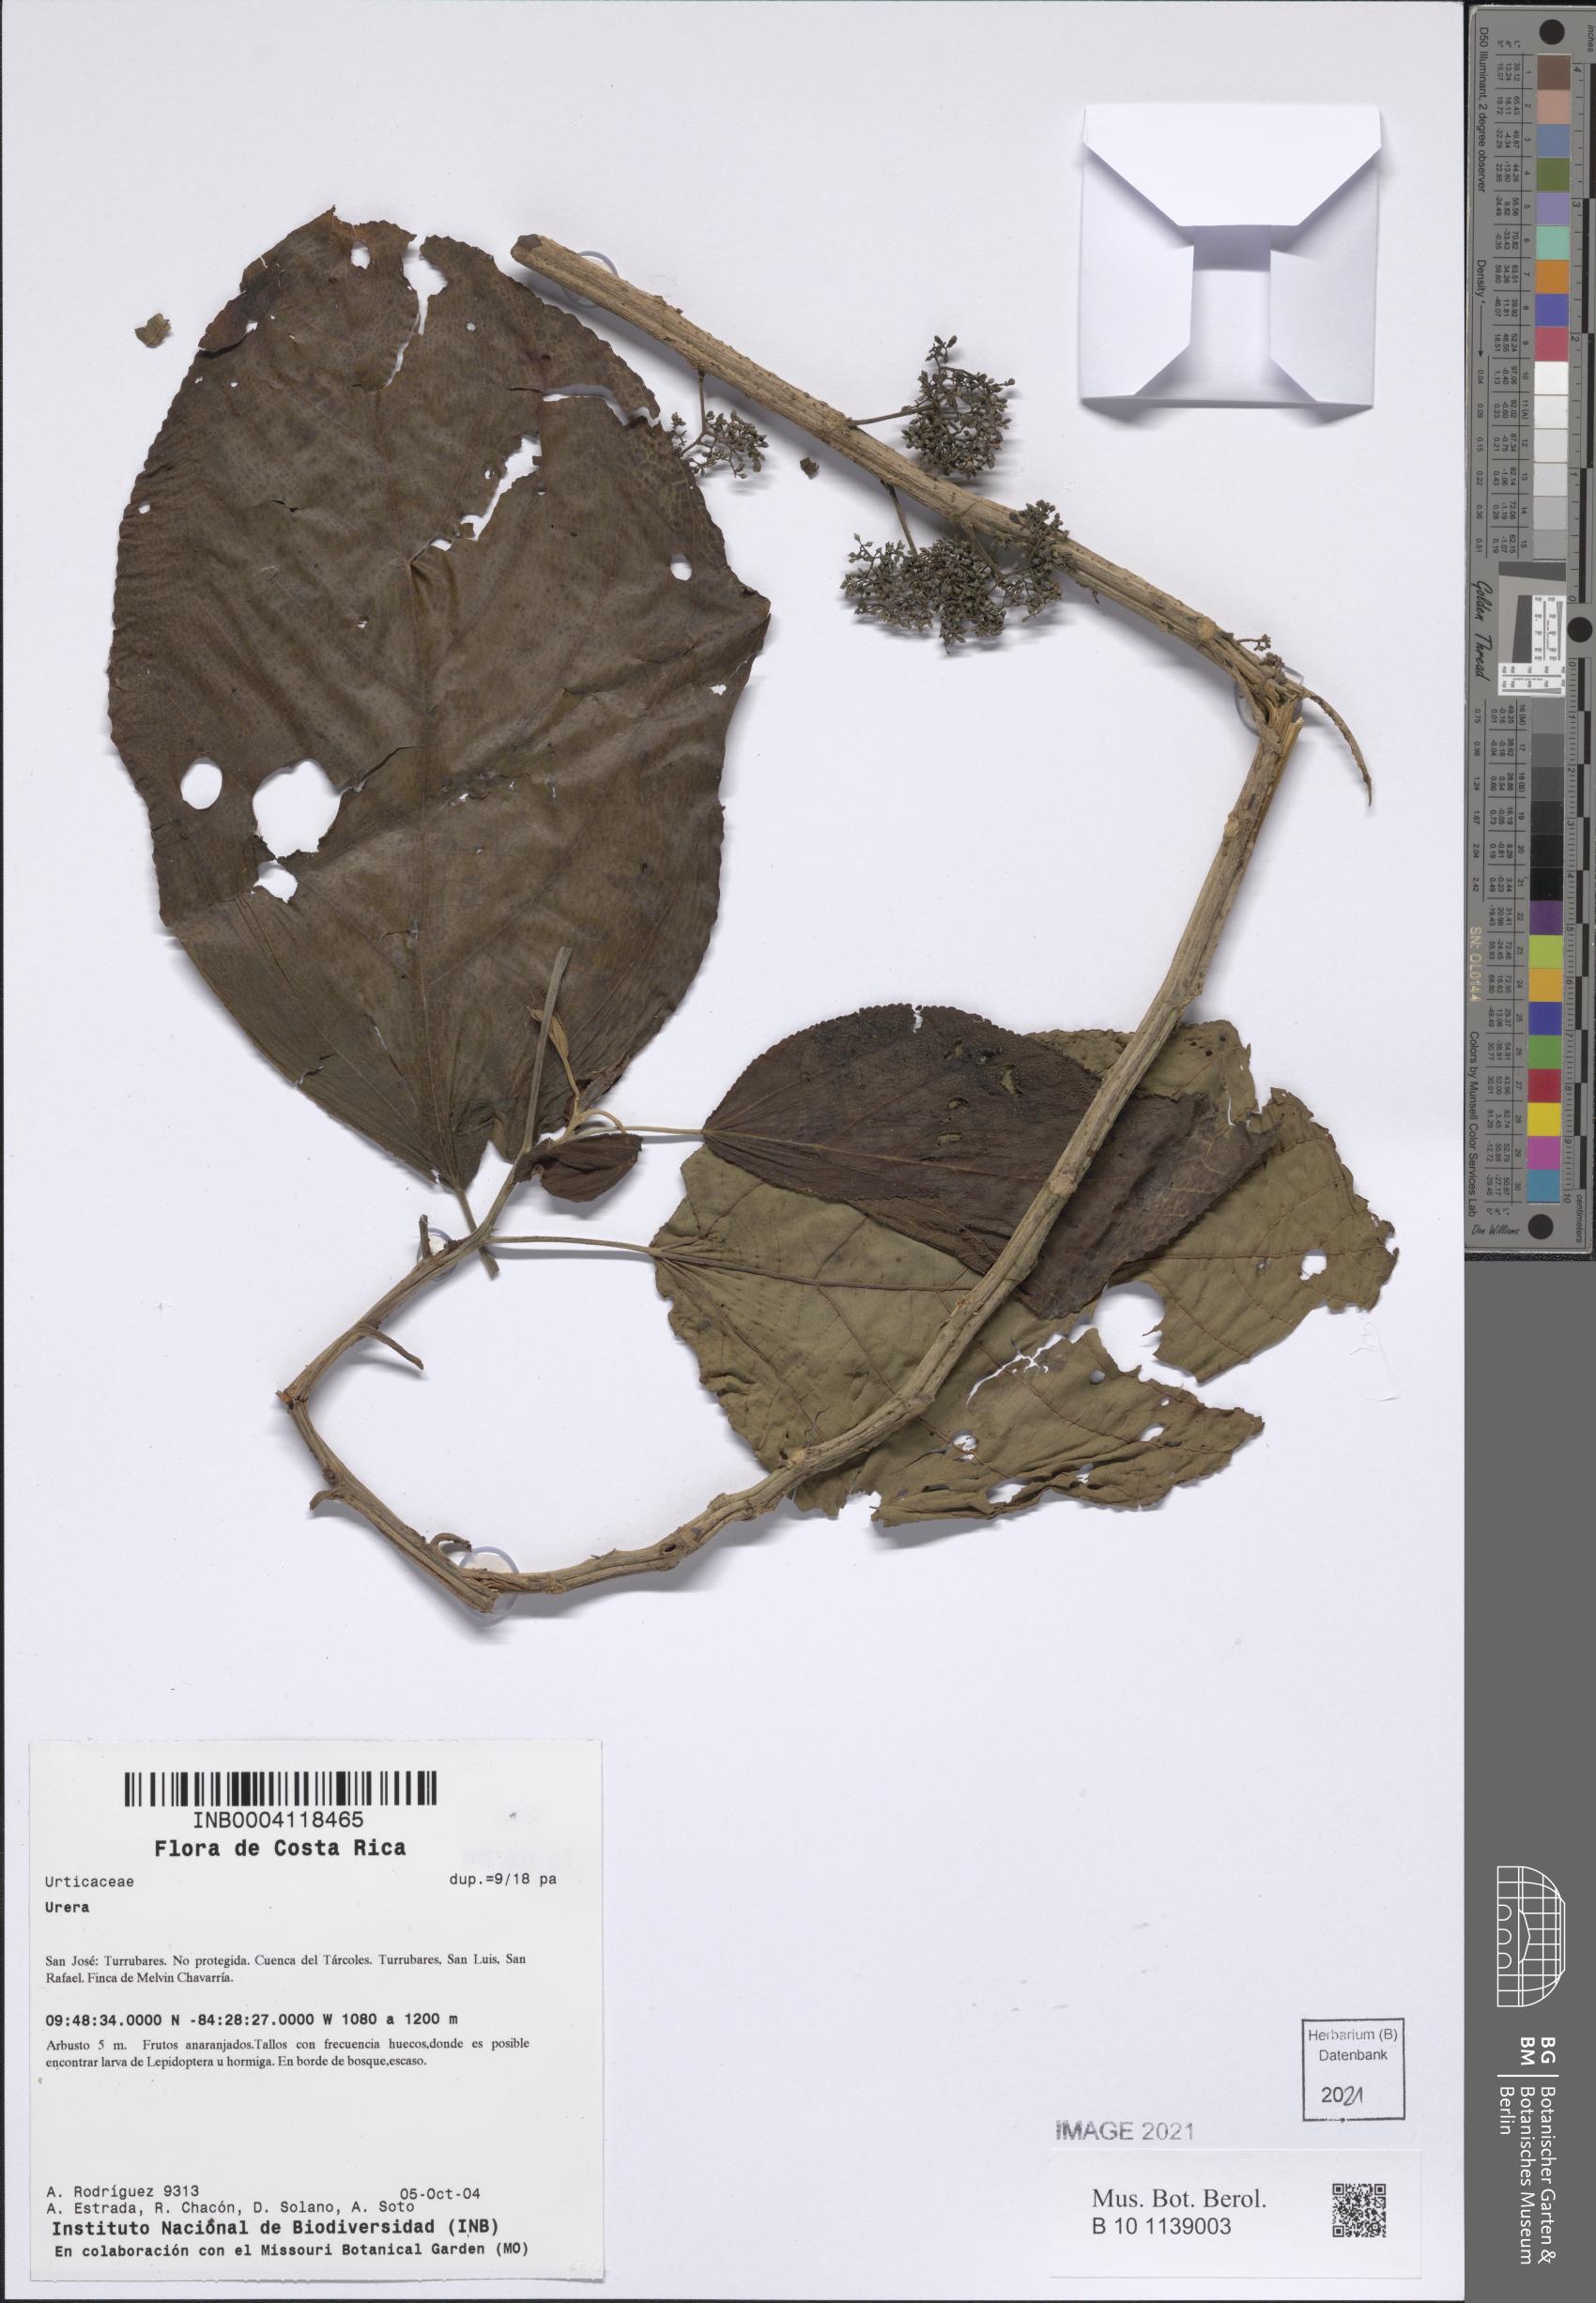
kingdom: Plantae
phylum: Tracheophyta
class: Magnoliopsida
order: Rosales
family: Urticaceae
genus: Urera
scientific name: Urera
